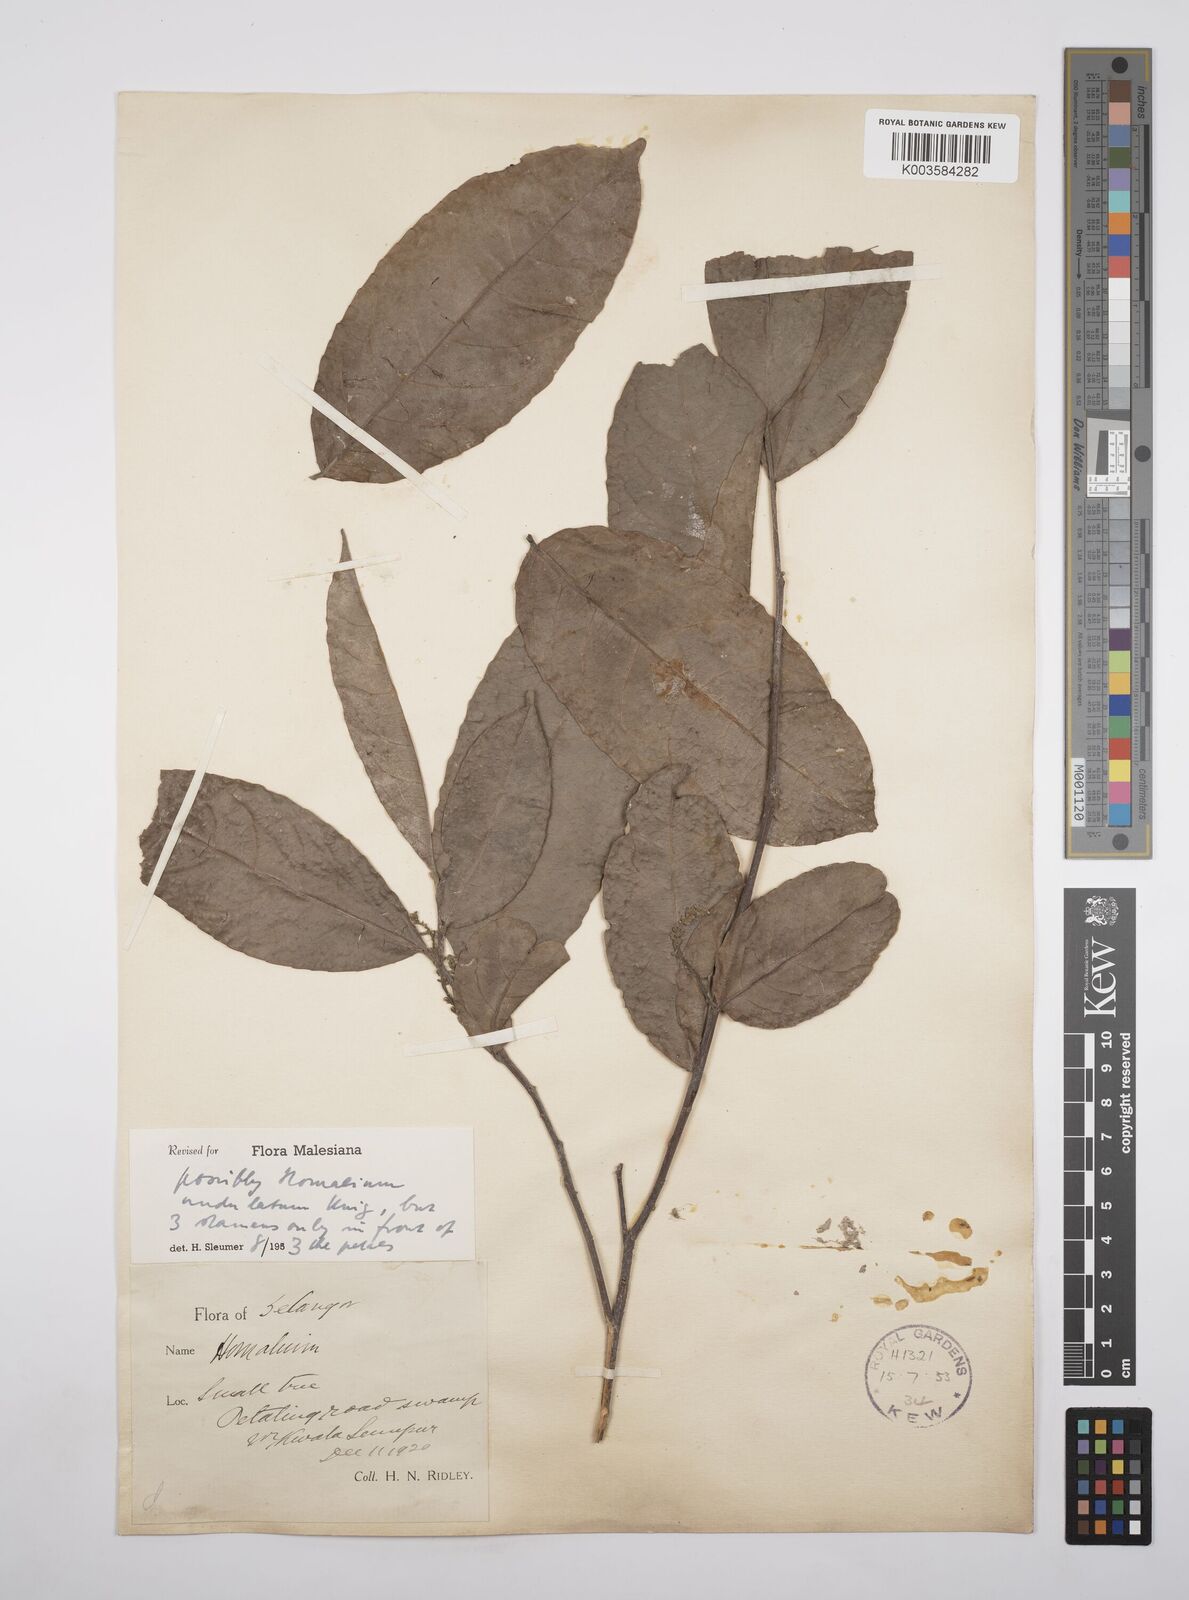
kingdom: Plantae
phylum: Tracheophyta
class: Magnoliopsida
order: Malpighiales
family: Salicaceae
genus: Homalium
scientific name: Homalium undulatum
